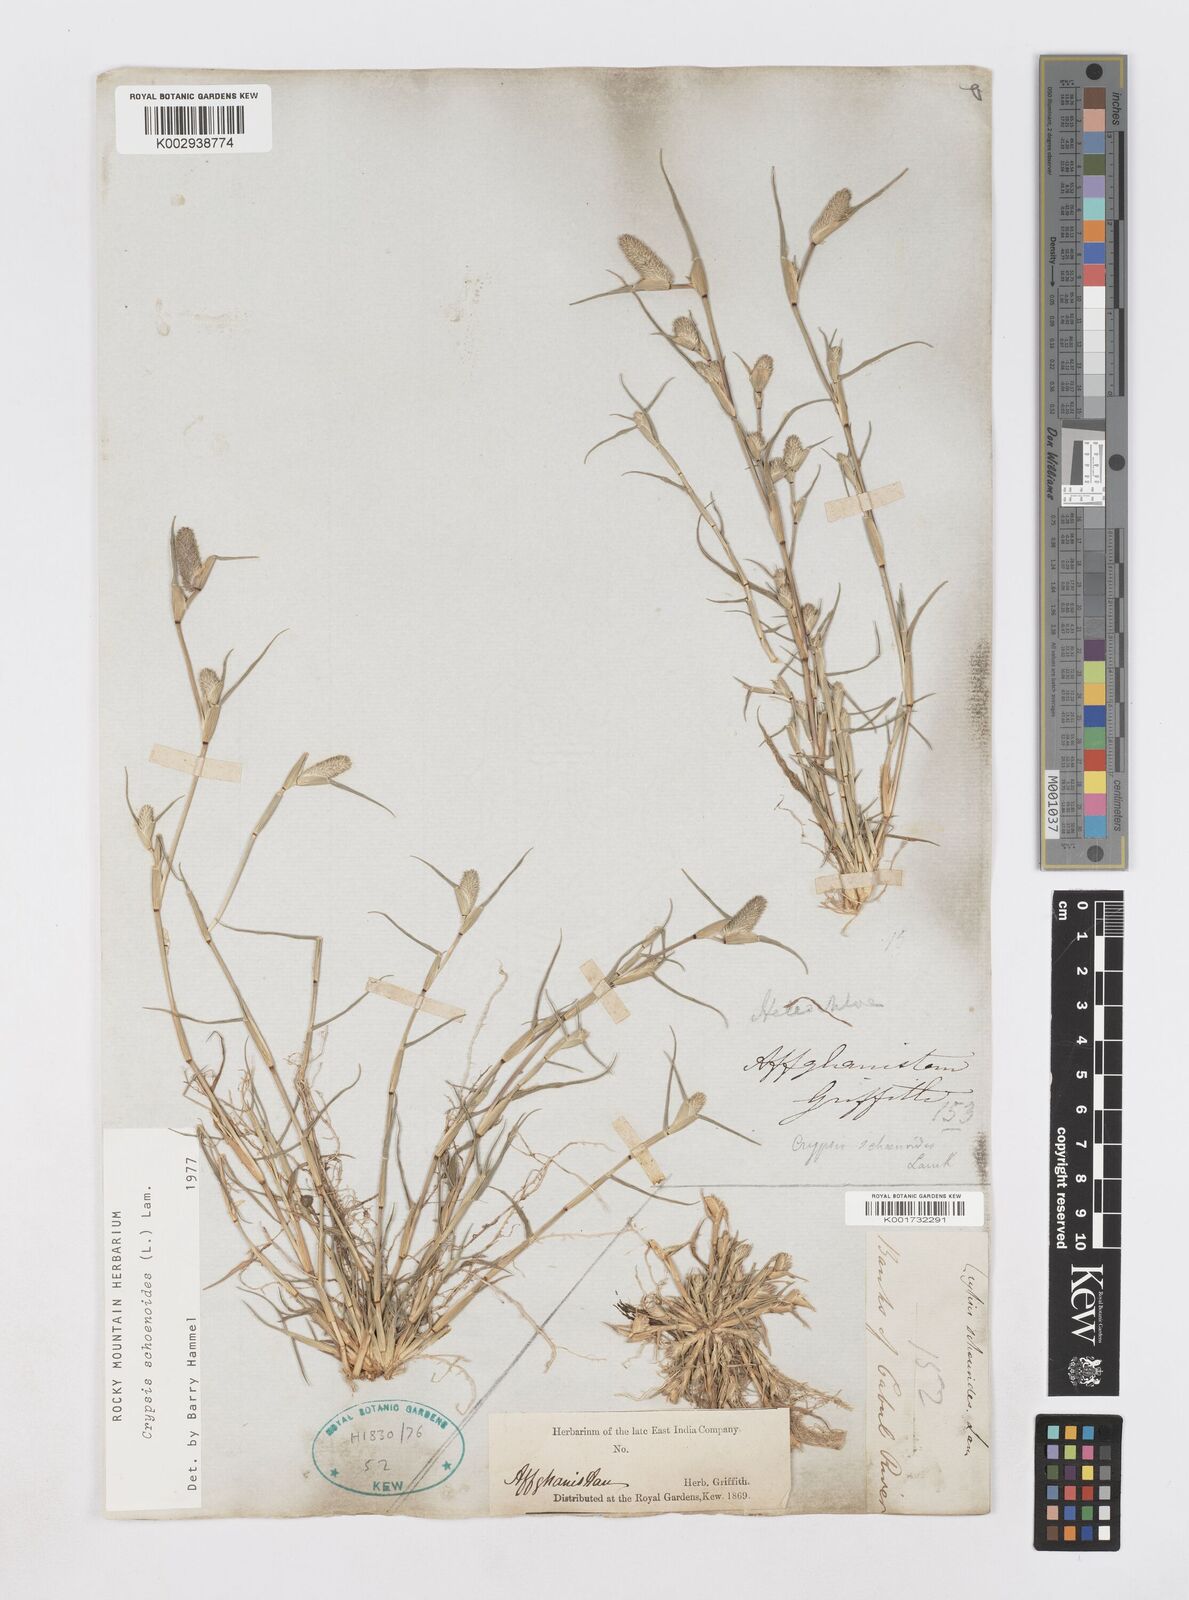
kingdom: Plantae
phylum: Tracheophyta
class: Liliopsida
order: Poales
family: Poaceae
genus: Sporobolus
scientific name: Sporobolus schoenoides
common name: Rush-like timothy
